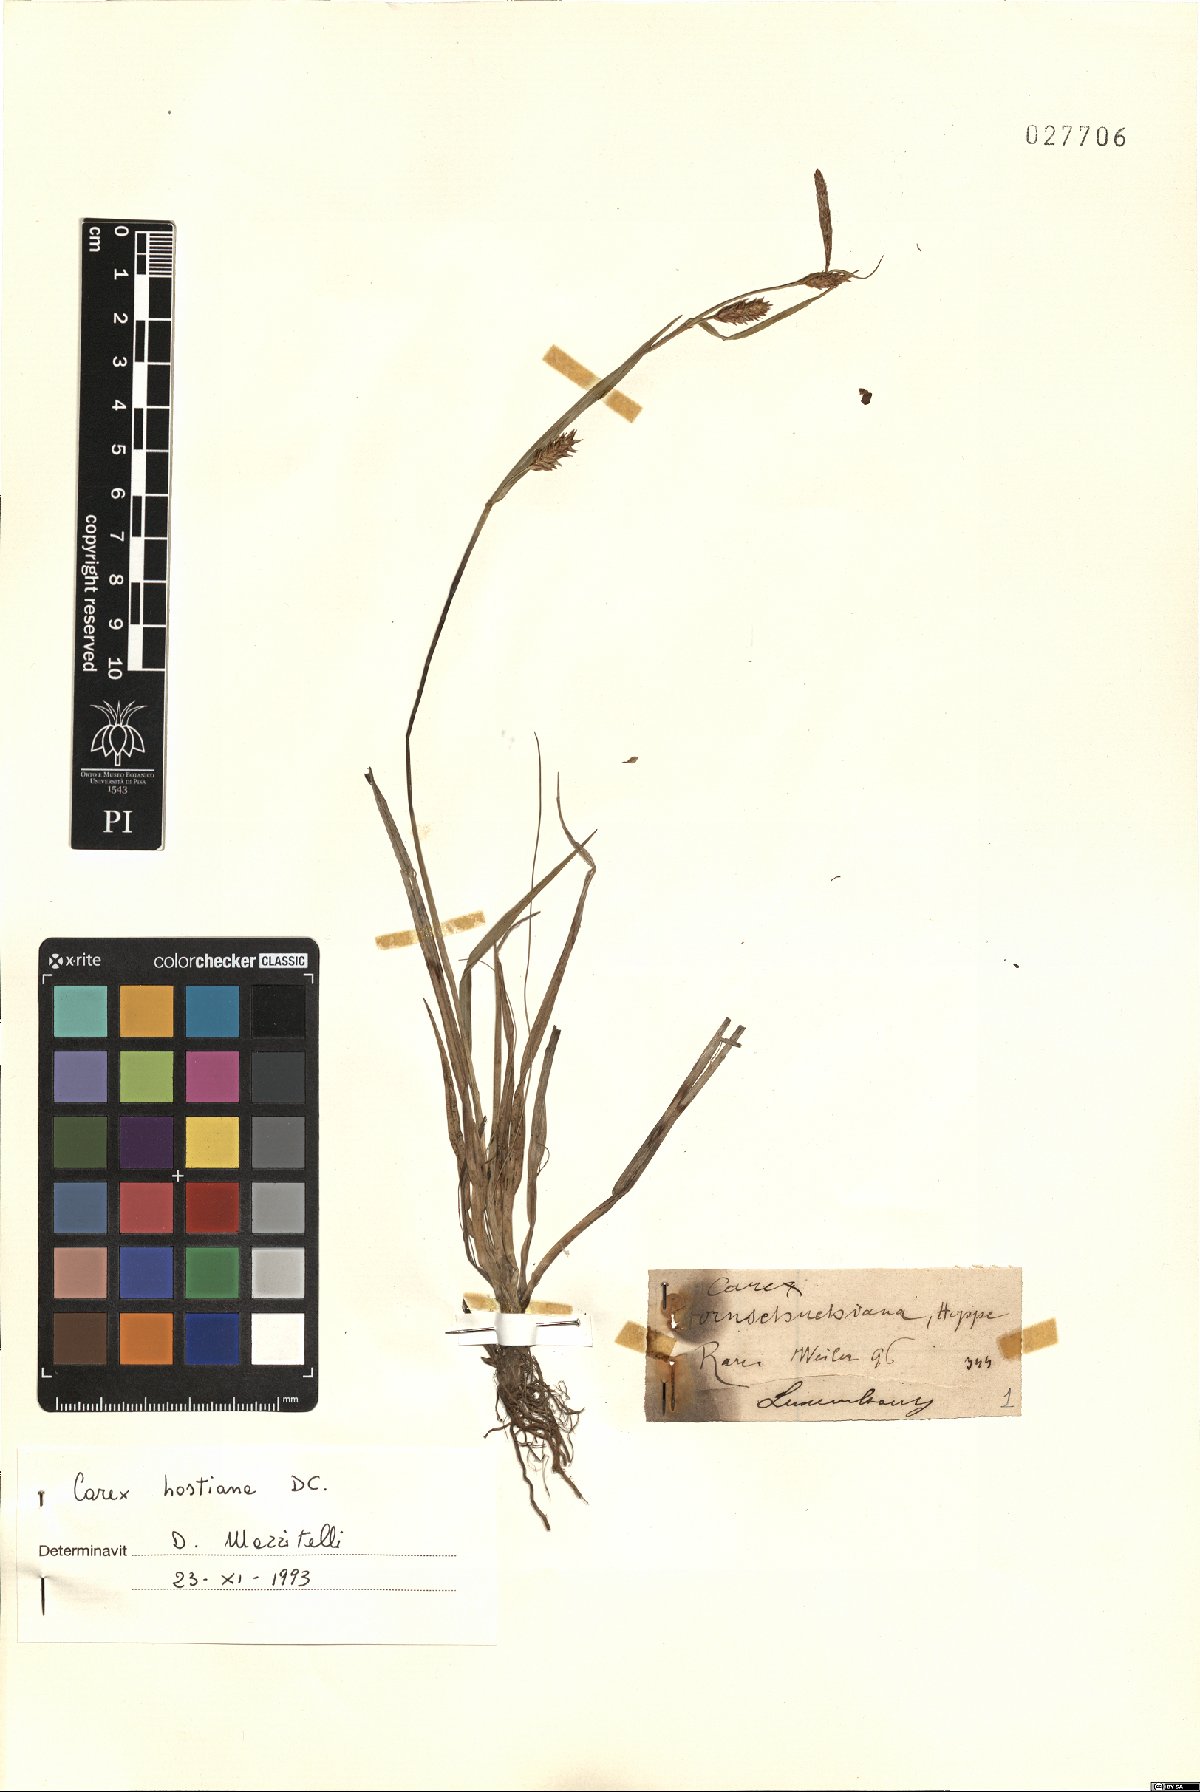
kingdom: Plantae
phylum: Tracheophyta
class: Liliopsida
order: Poales
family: Cyperaceae
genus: Carex
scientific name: Carex hostiana
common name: Tawny sedge
